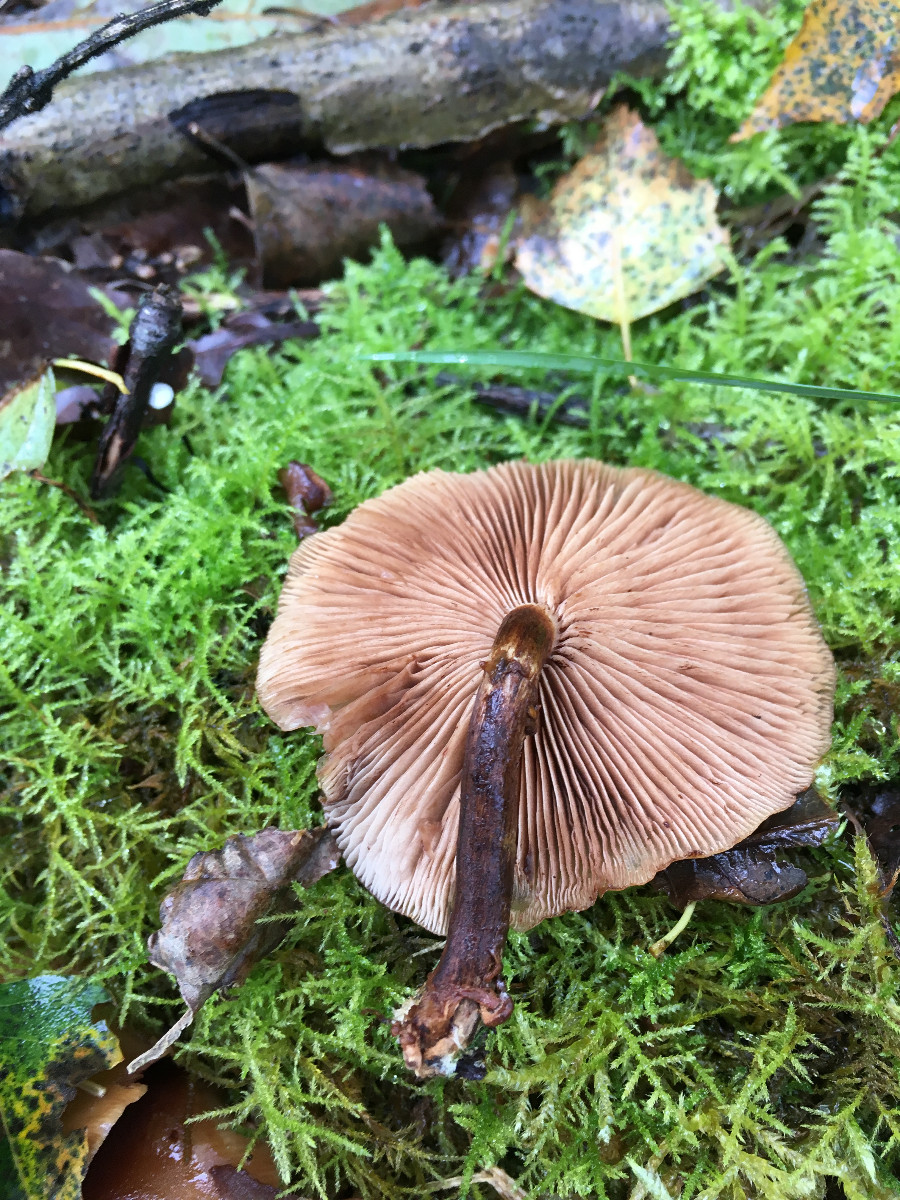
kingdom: Fungi
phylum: Basidiomycota
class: Agaricomycetes
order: Agaricales
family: Strophariaceae
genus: Kuehneromyces
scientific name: Kuehneromyces mutabilis
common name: foranderlig skælhat
